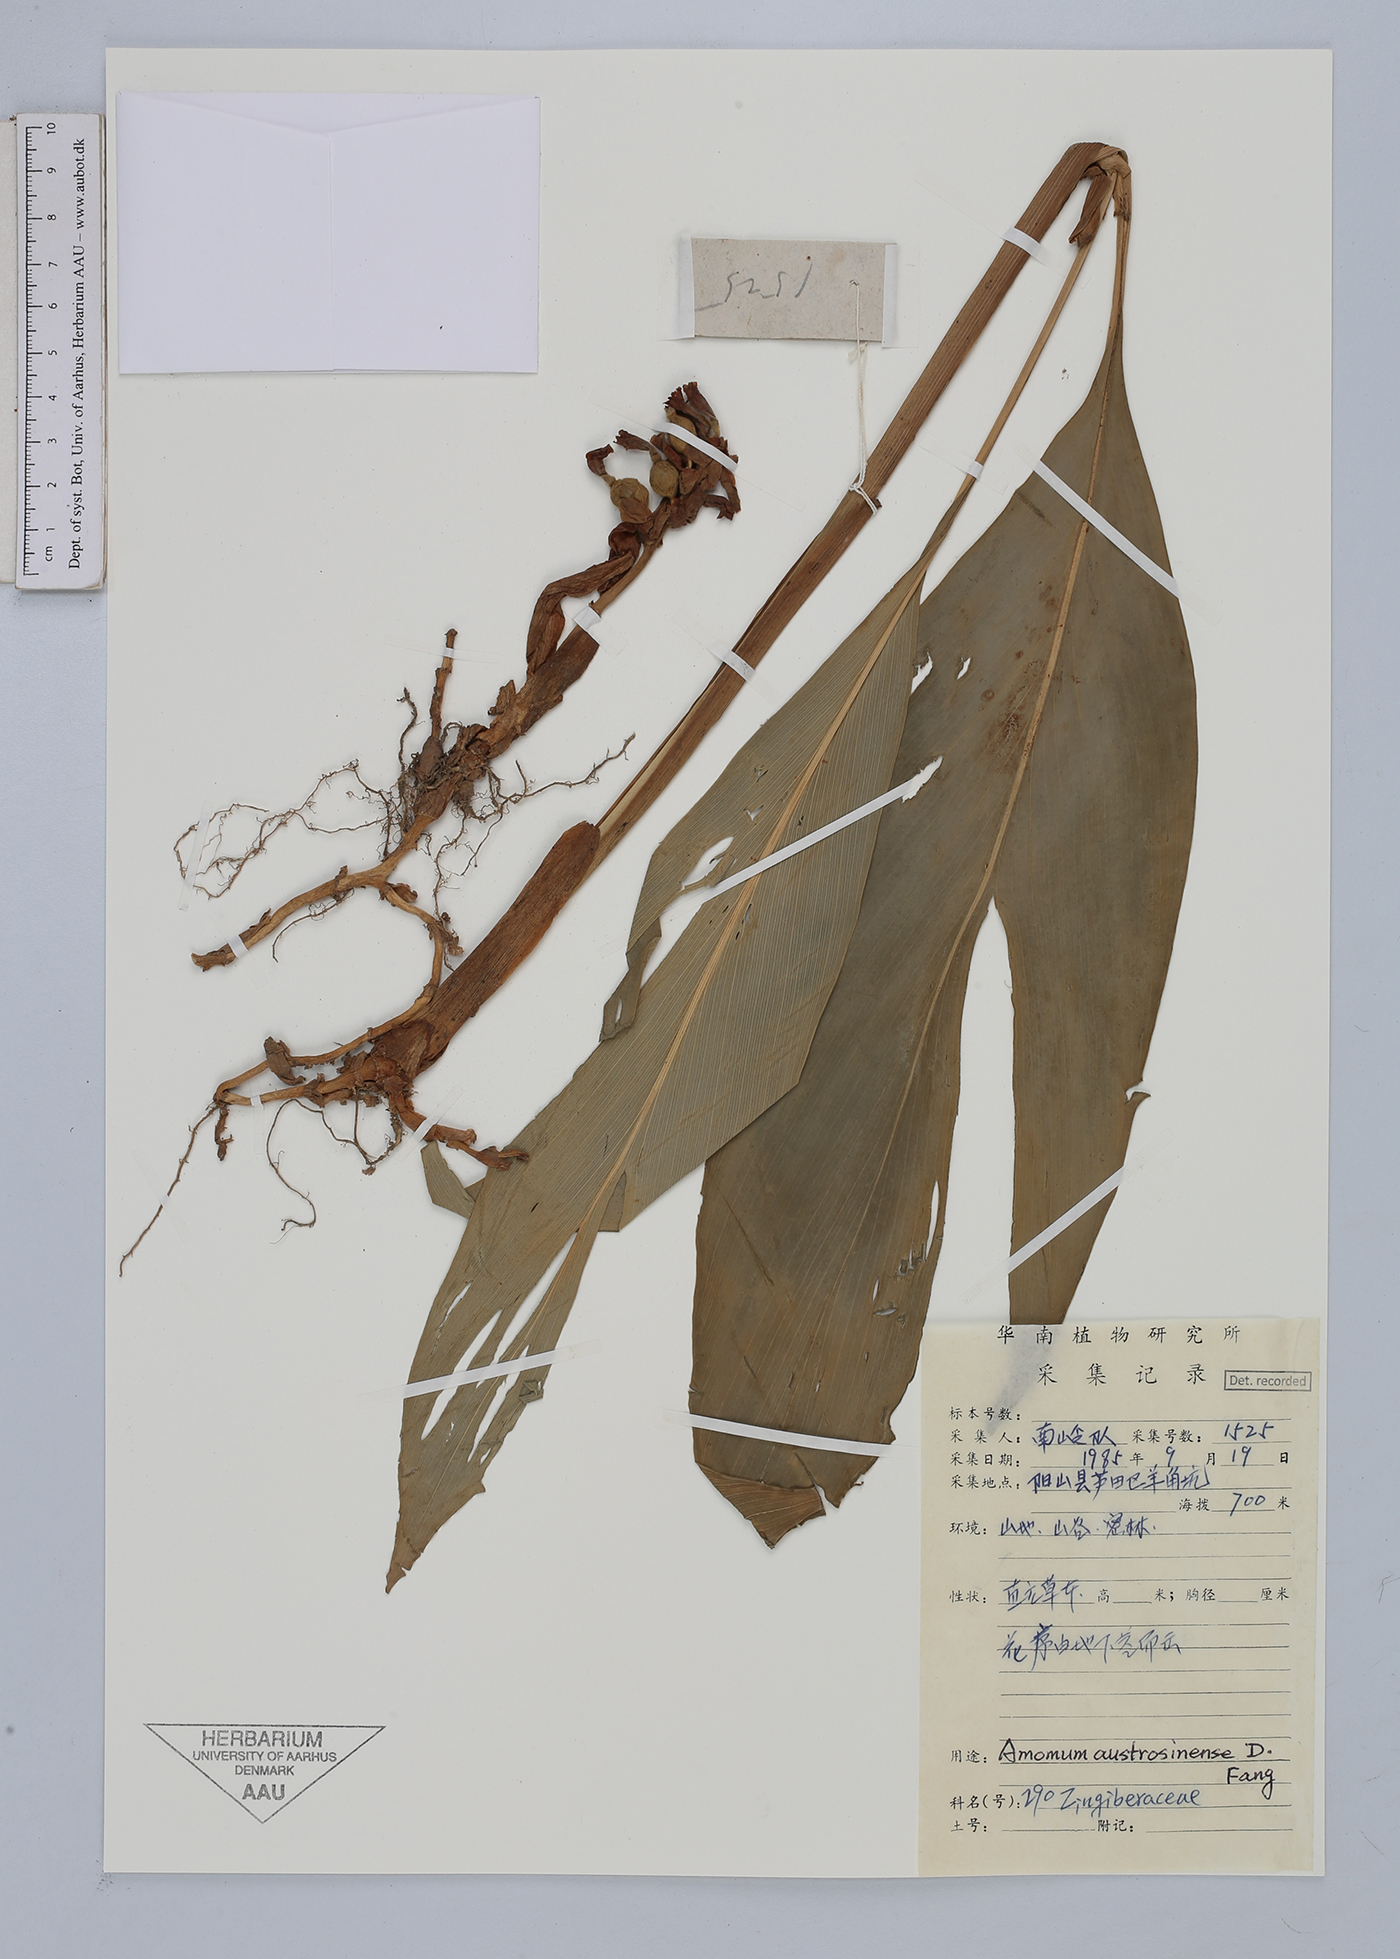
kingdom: Plantae
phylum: Tracheophyta
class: Liliopsida
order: Zingiberales
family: Zingiberaceae
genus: Alpinia
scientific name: Alpinia austrosinense
